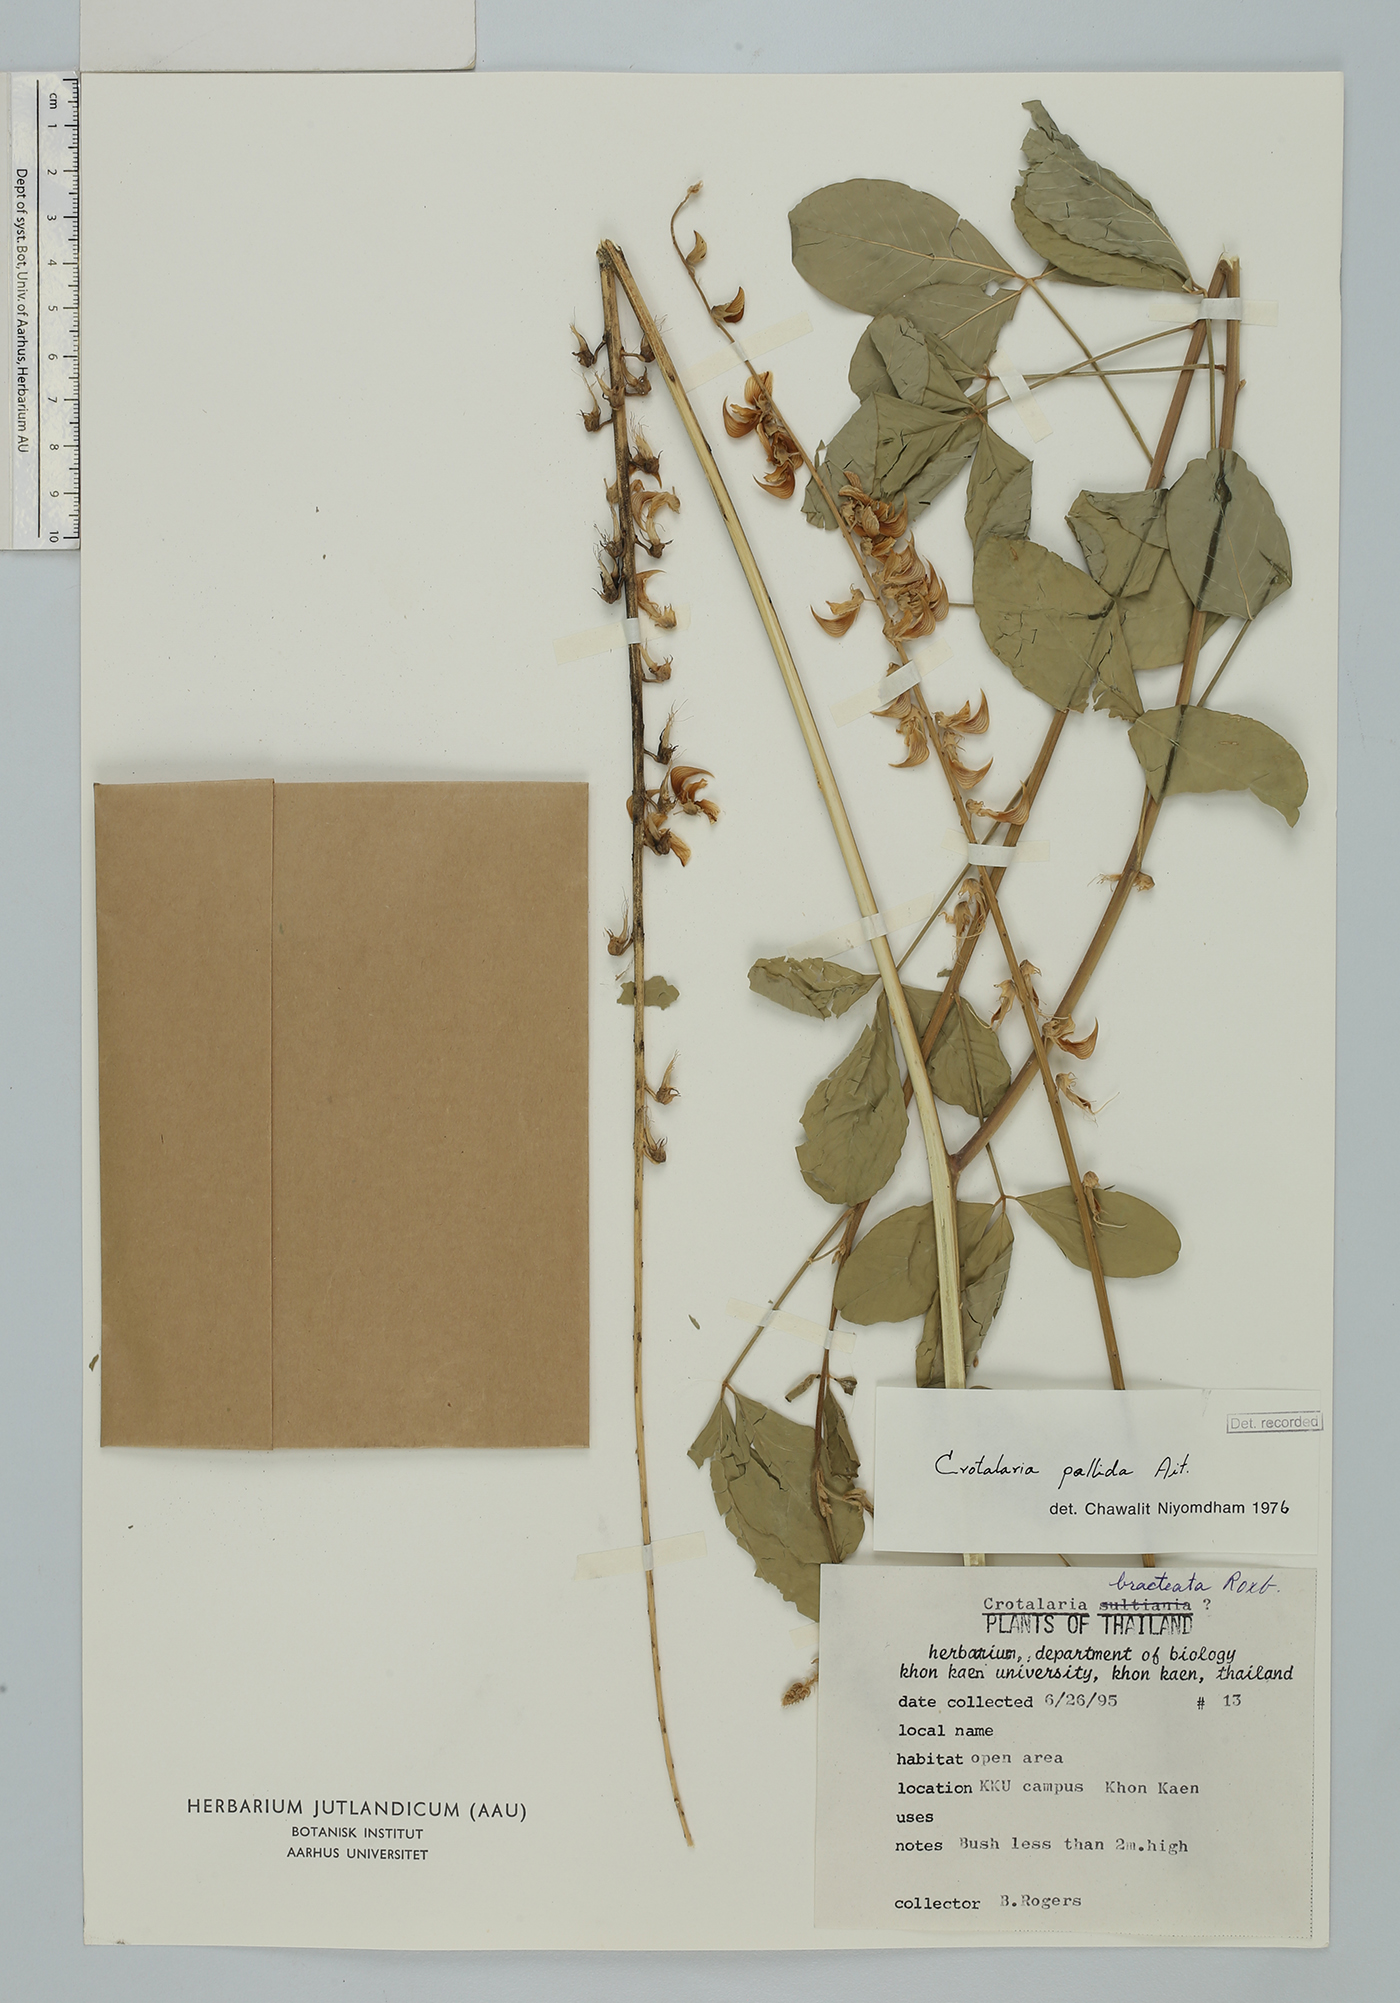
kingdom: Plantae
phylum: Tracheophyta
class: Magnoliopsida
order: Fabales
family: Fabaceae
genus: Crotalaria
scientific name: Crotalaria pallida
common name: Smooth rattlebox
